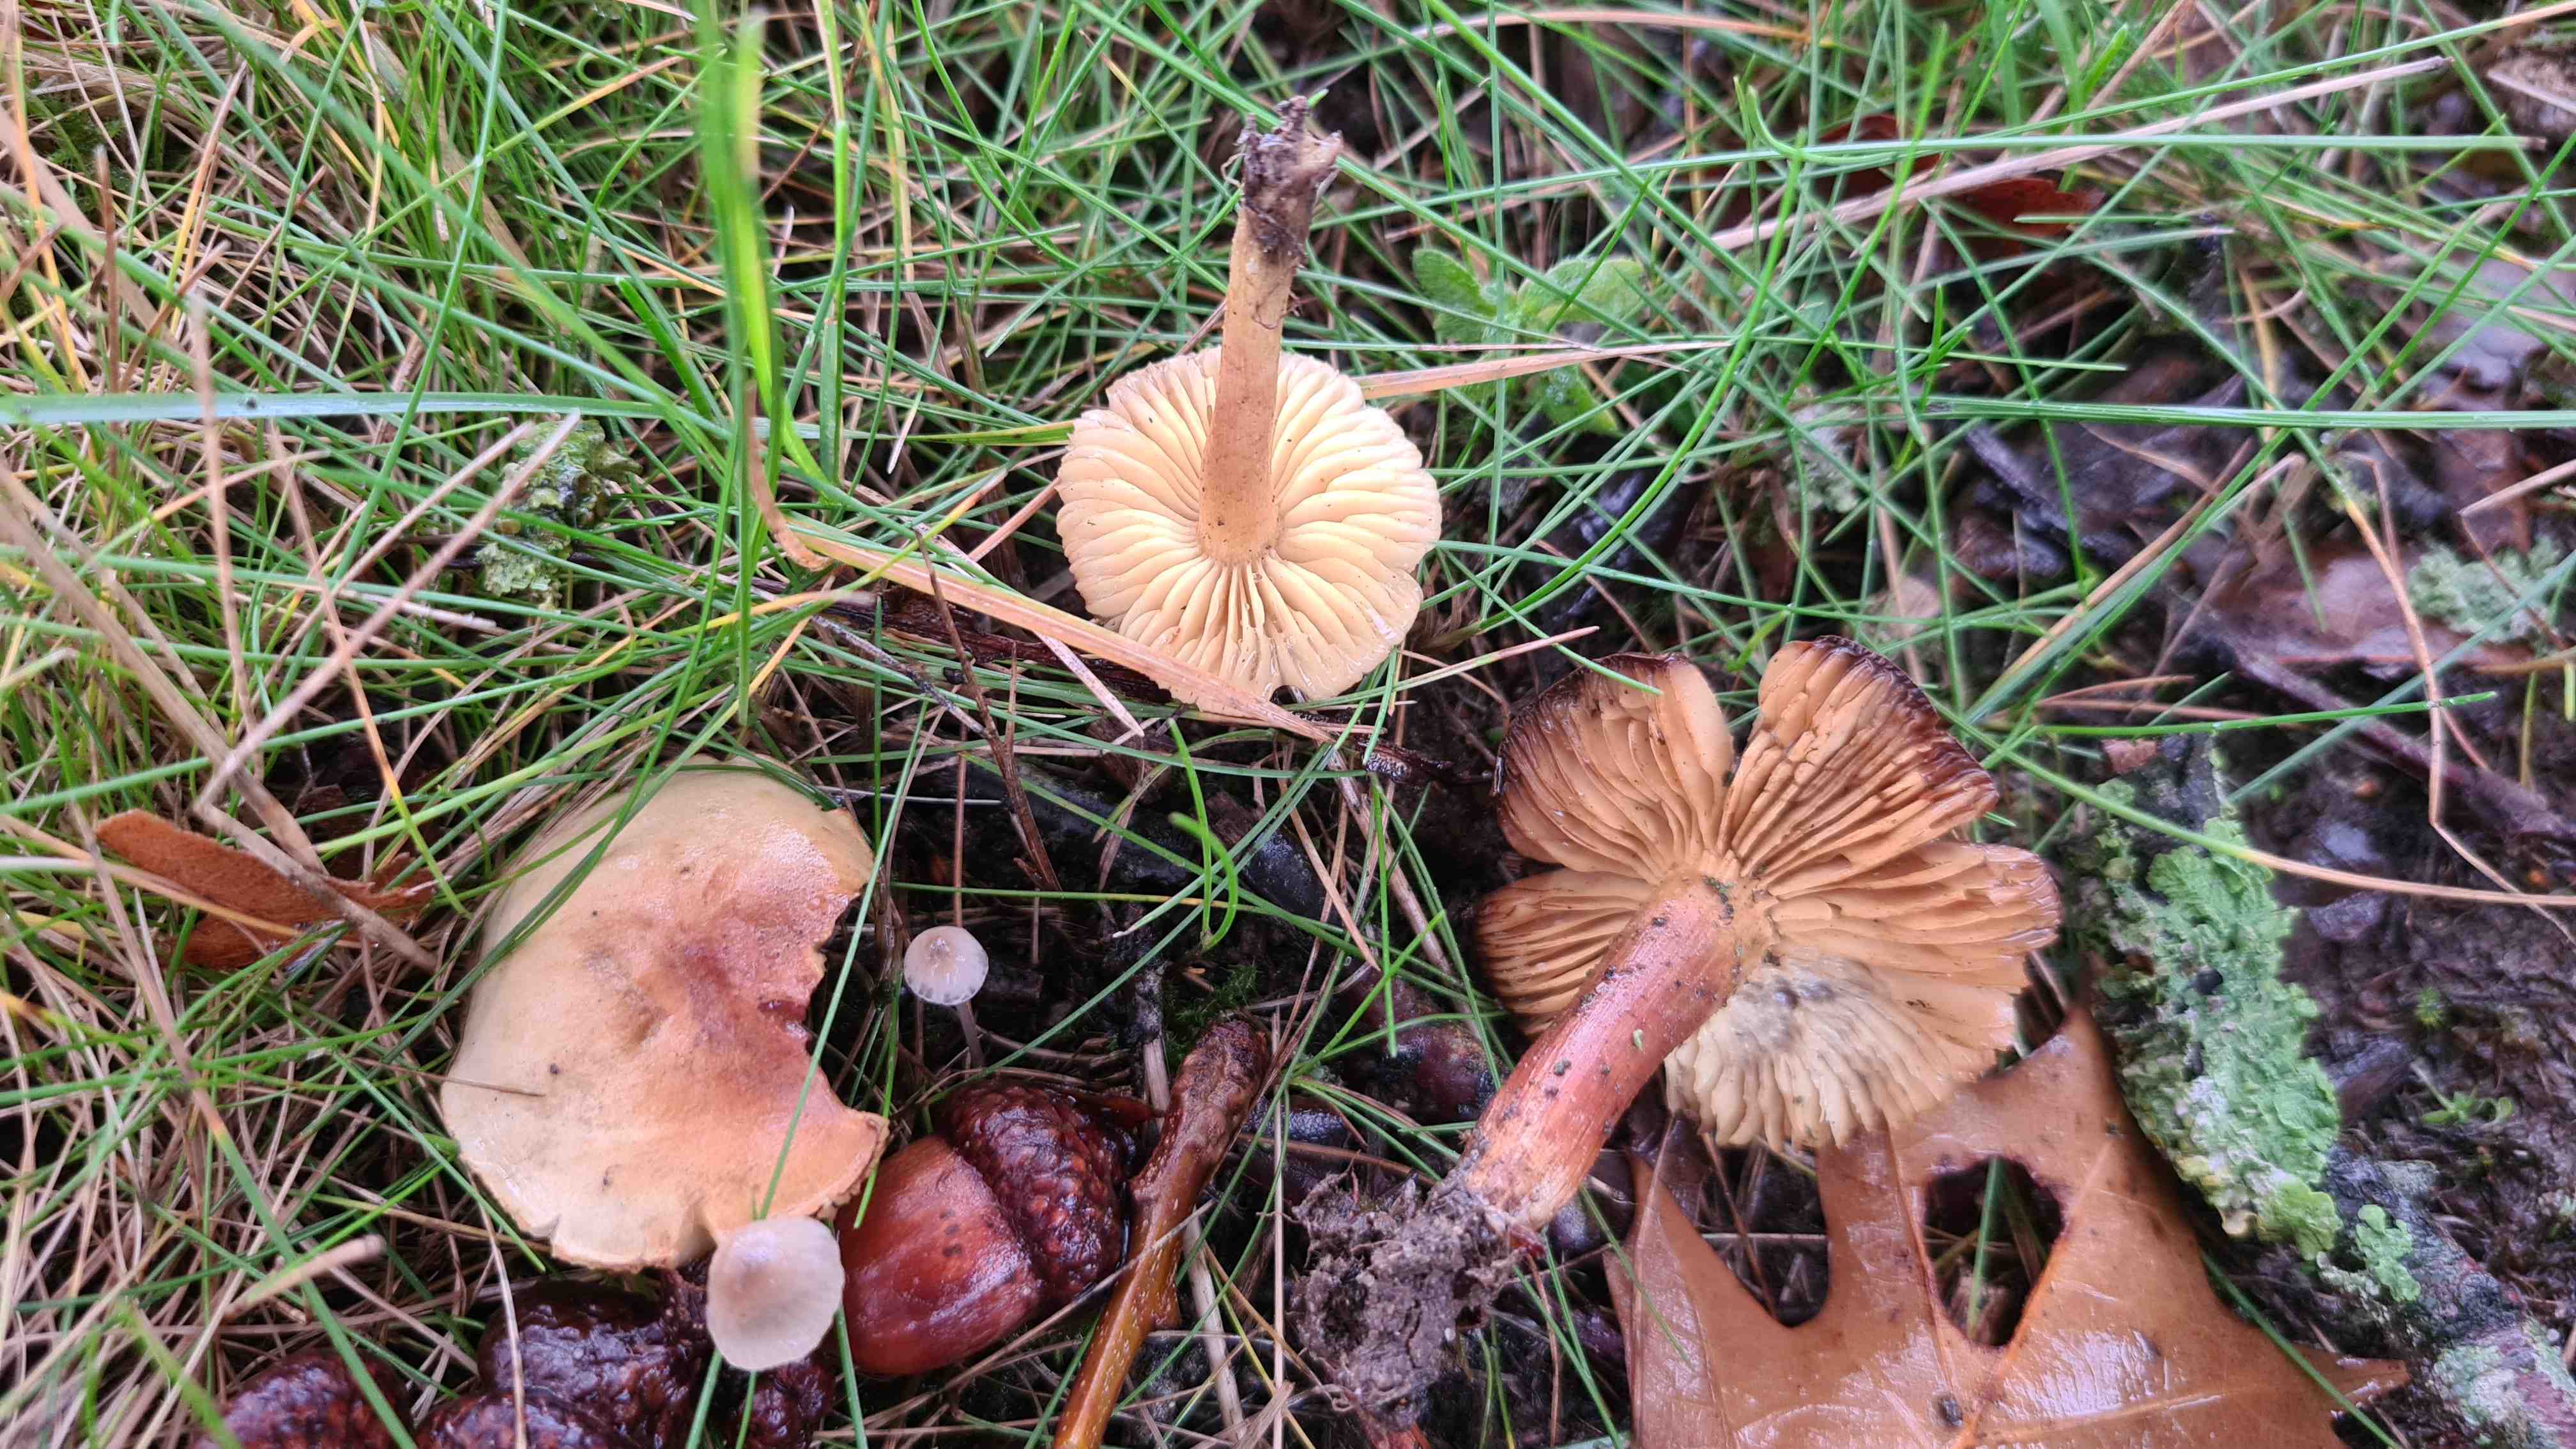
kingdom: Fungi
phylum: Basidiomycota
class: Agaricomycetes
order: Agaricales
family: Tricholomataceae
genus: Tricholoma
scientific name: Tricholoma sulphureum
